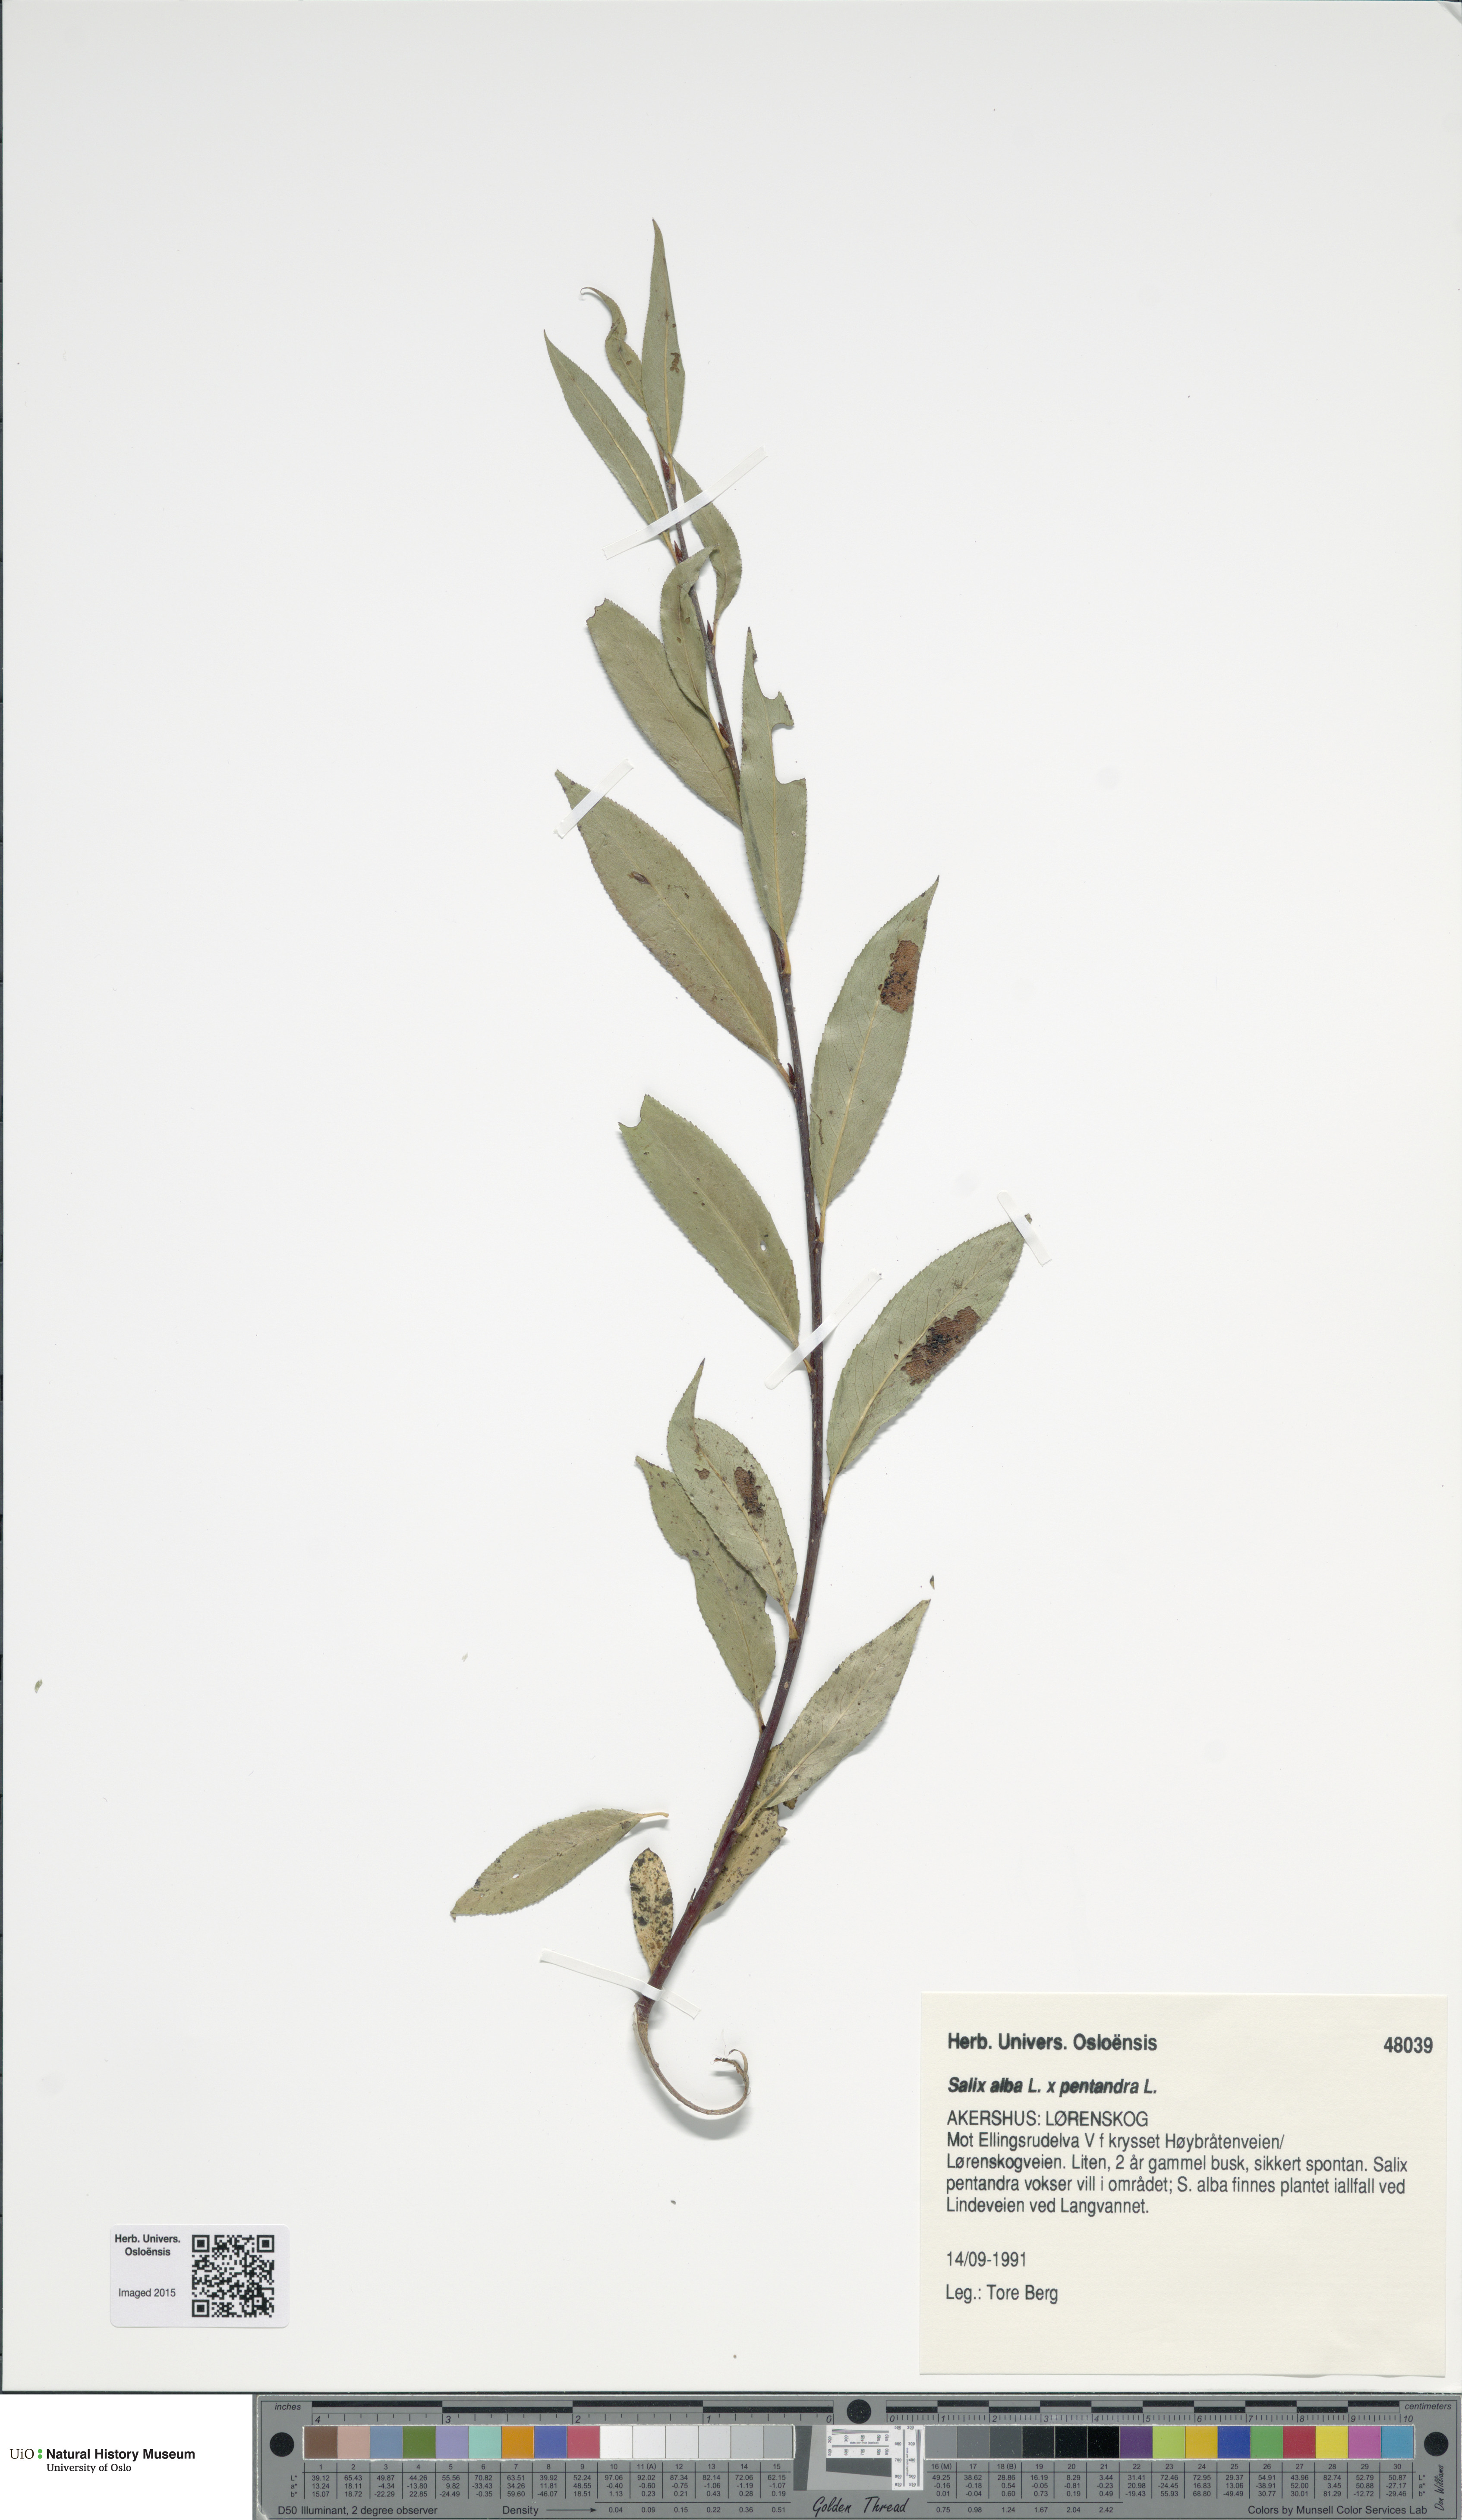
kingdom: Plantae
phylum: Tracheophyta
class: Magnoliopsida
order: Malpighiales
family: Salicaceae
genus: Salix
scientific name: Salix
